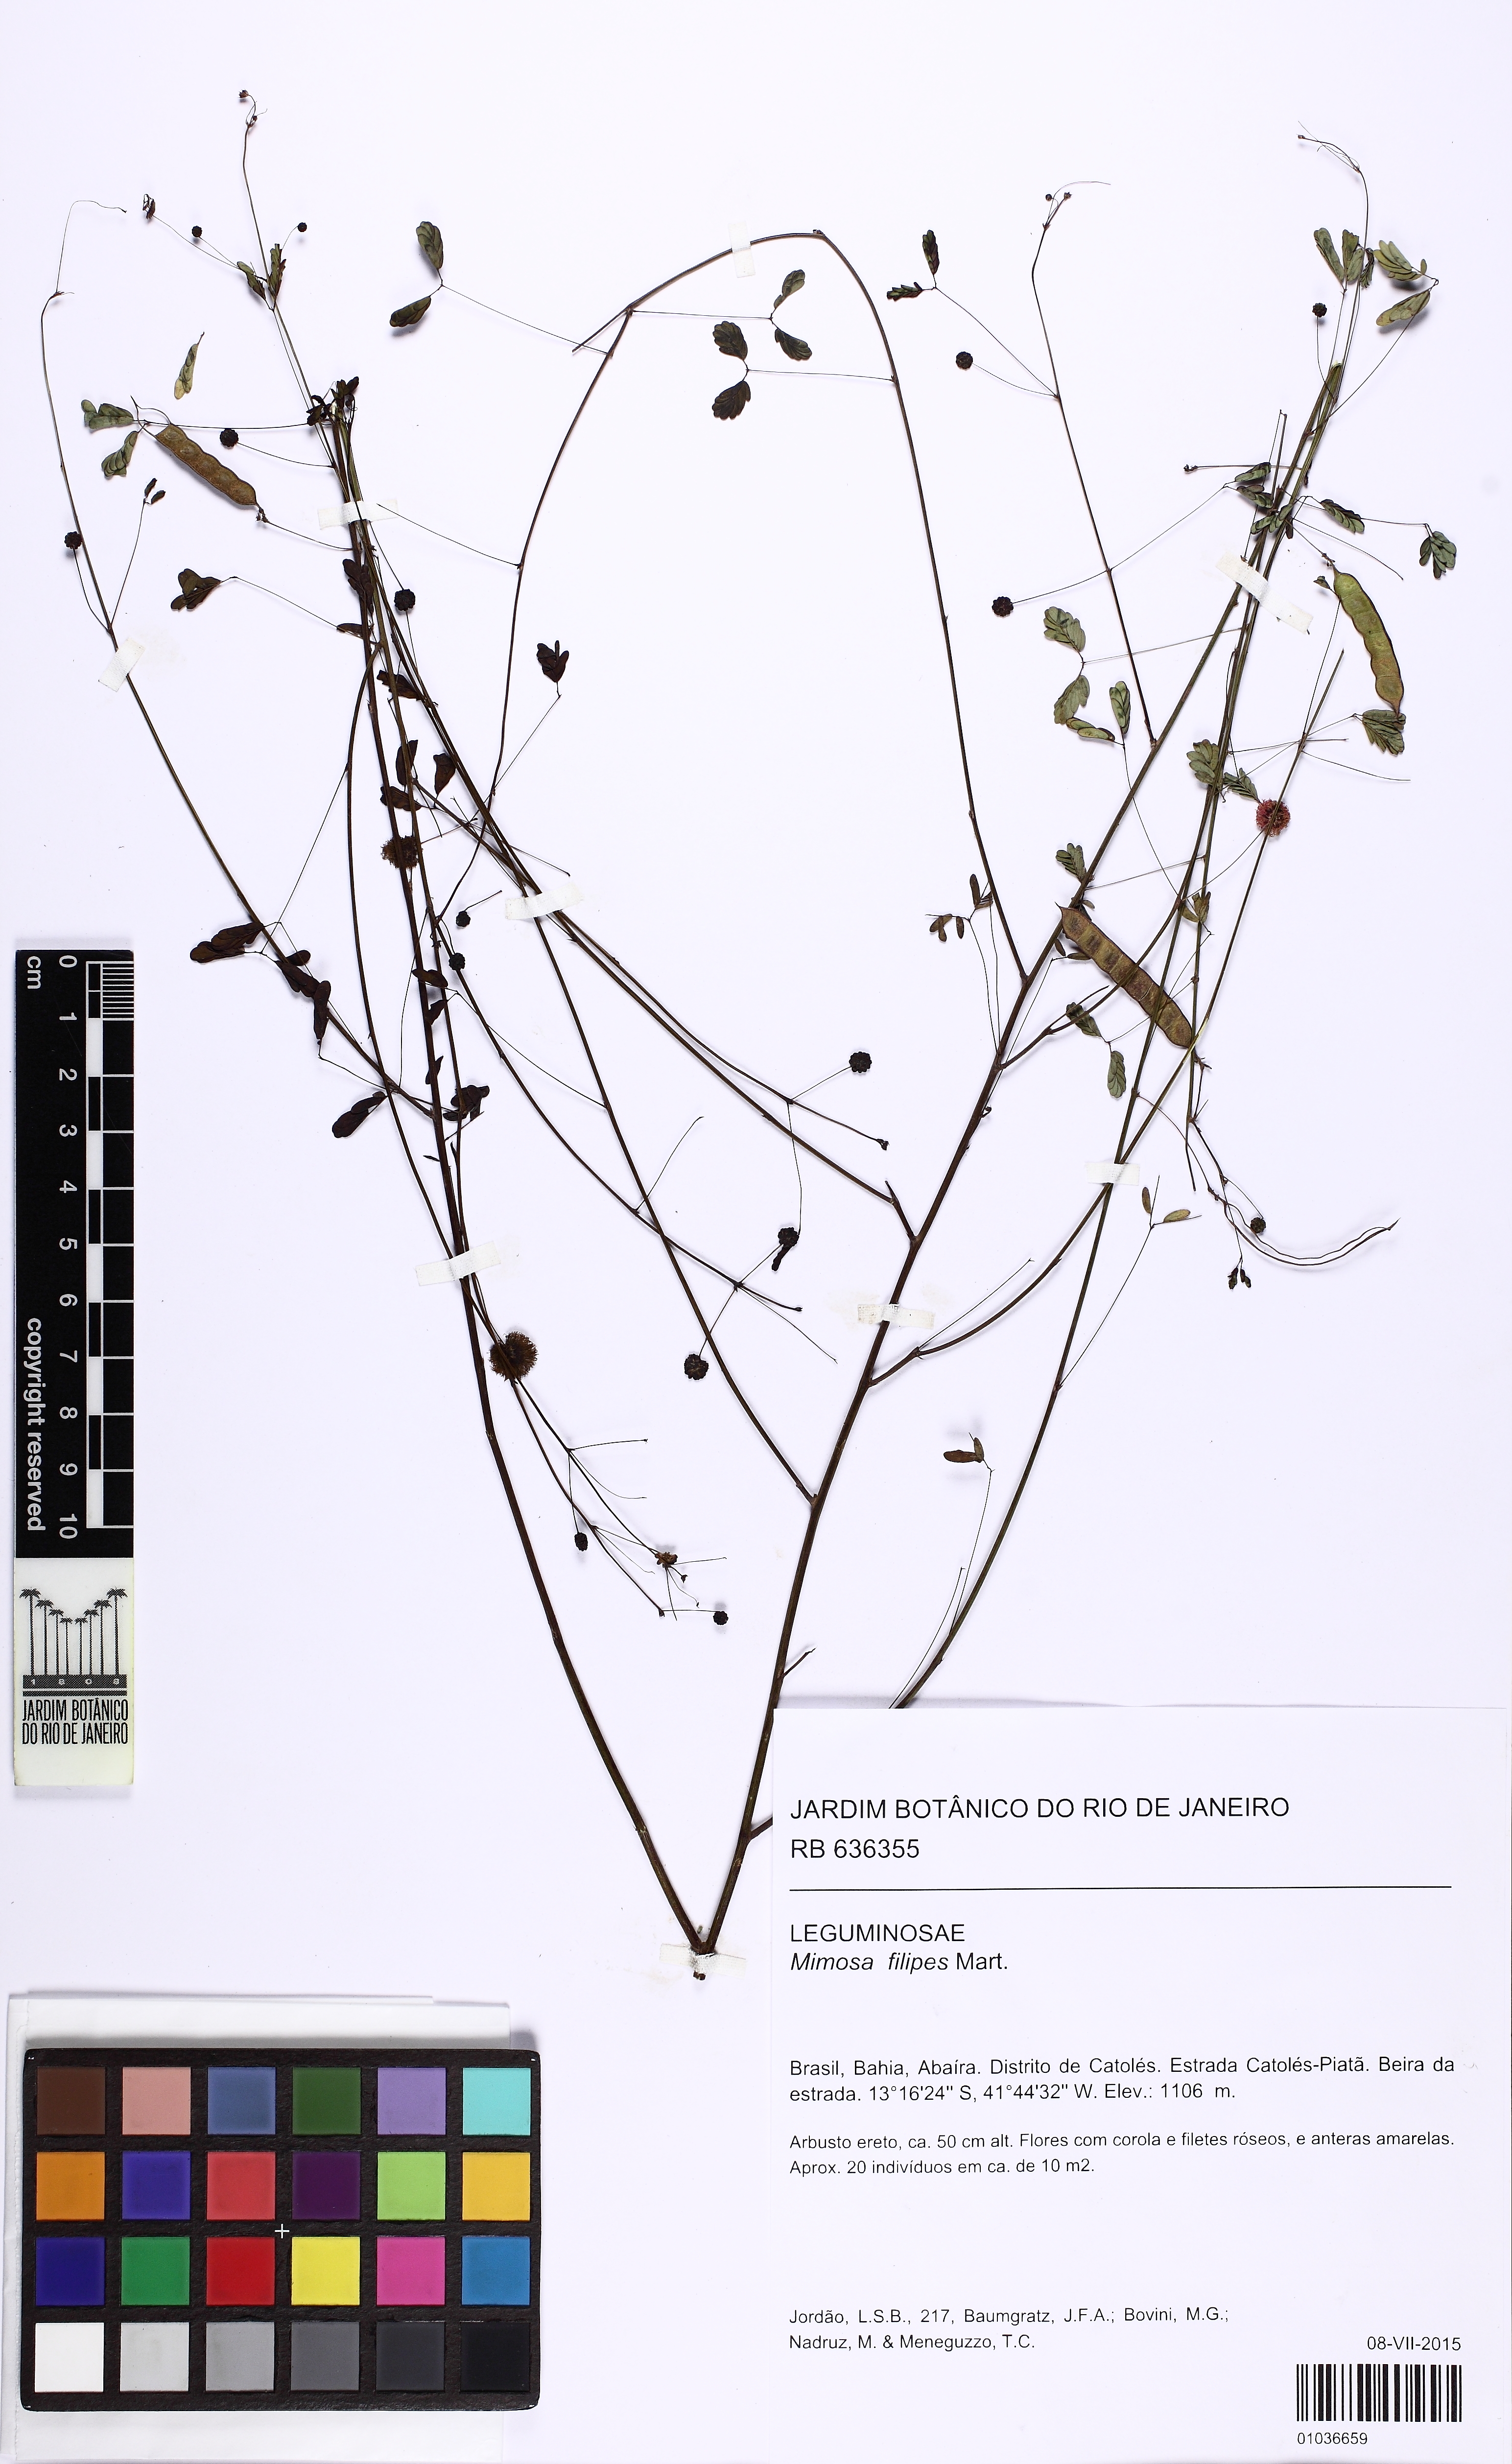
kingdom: Plantae
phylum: Tracheophyta
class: Magnoliopsida
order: Fabales
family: Fabaceae
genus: Mimosa
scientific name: Mimosa filipes
